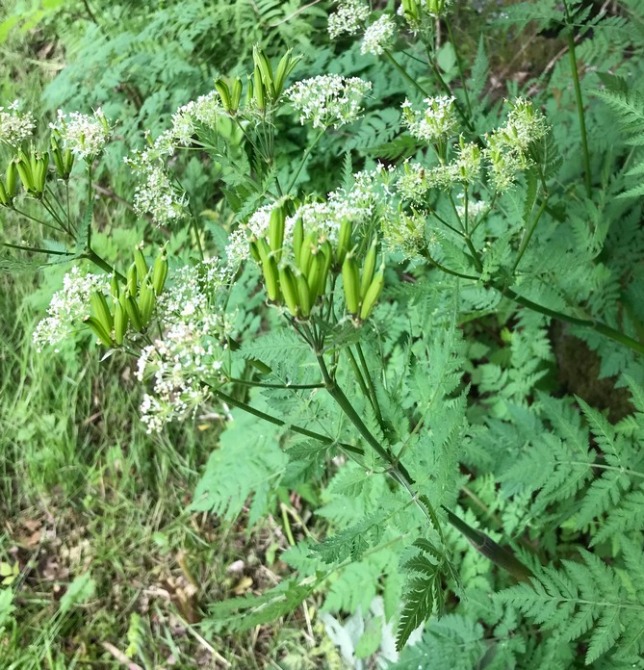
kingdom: Plantae
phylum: Tracheophyta
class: Magnoliopsida
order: Apiales
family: Apiaceae
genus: Myrrhis
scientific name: Myrrhis odorata
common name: Sødskærm
